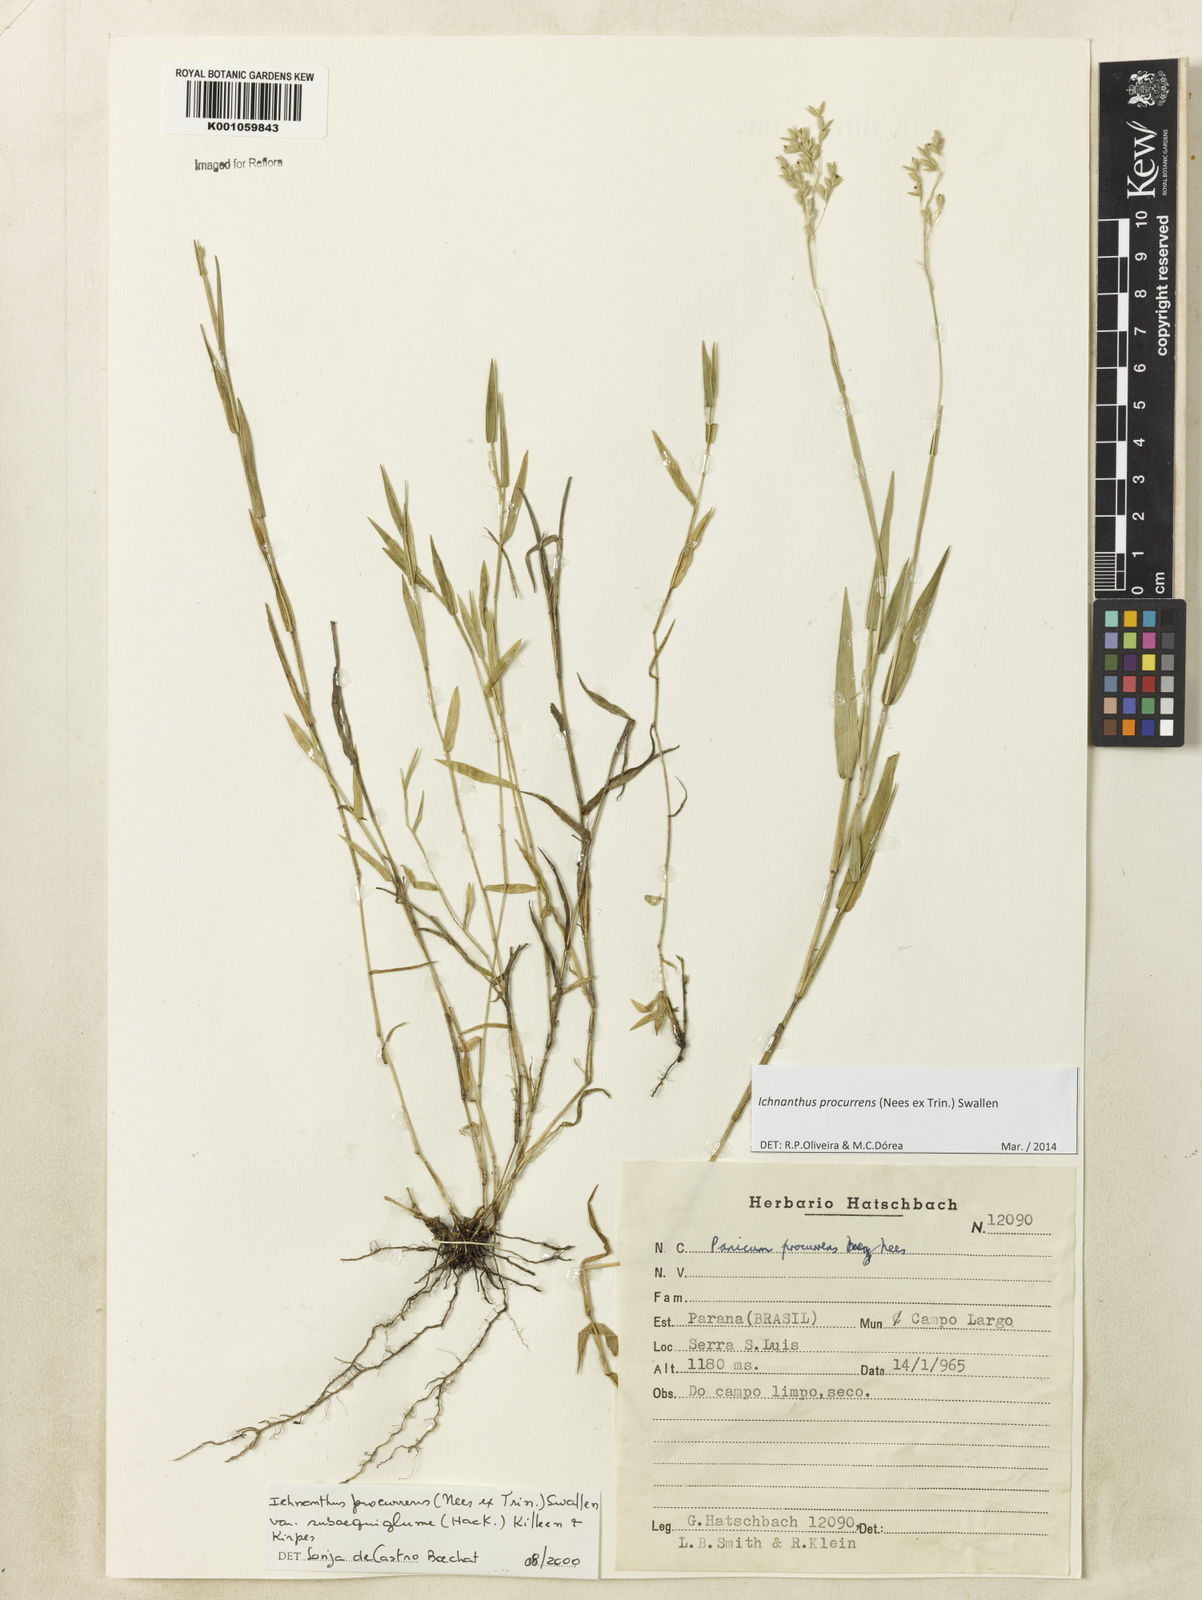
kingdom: Plantae
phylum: Tracheophyta
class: Liliopsida
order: Poales
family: Poaceae
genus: Oedochloa
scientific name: Oedochloa procurrens
